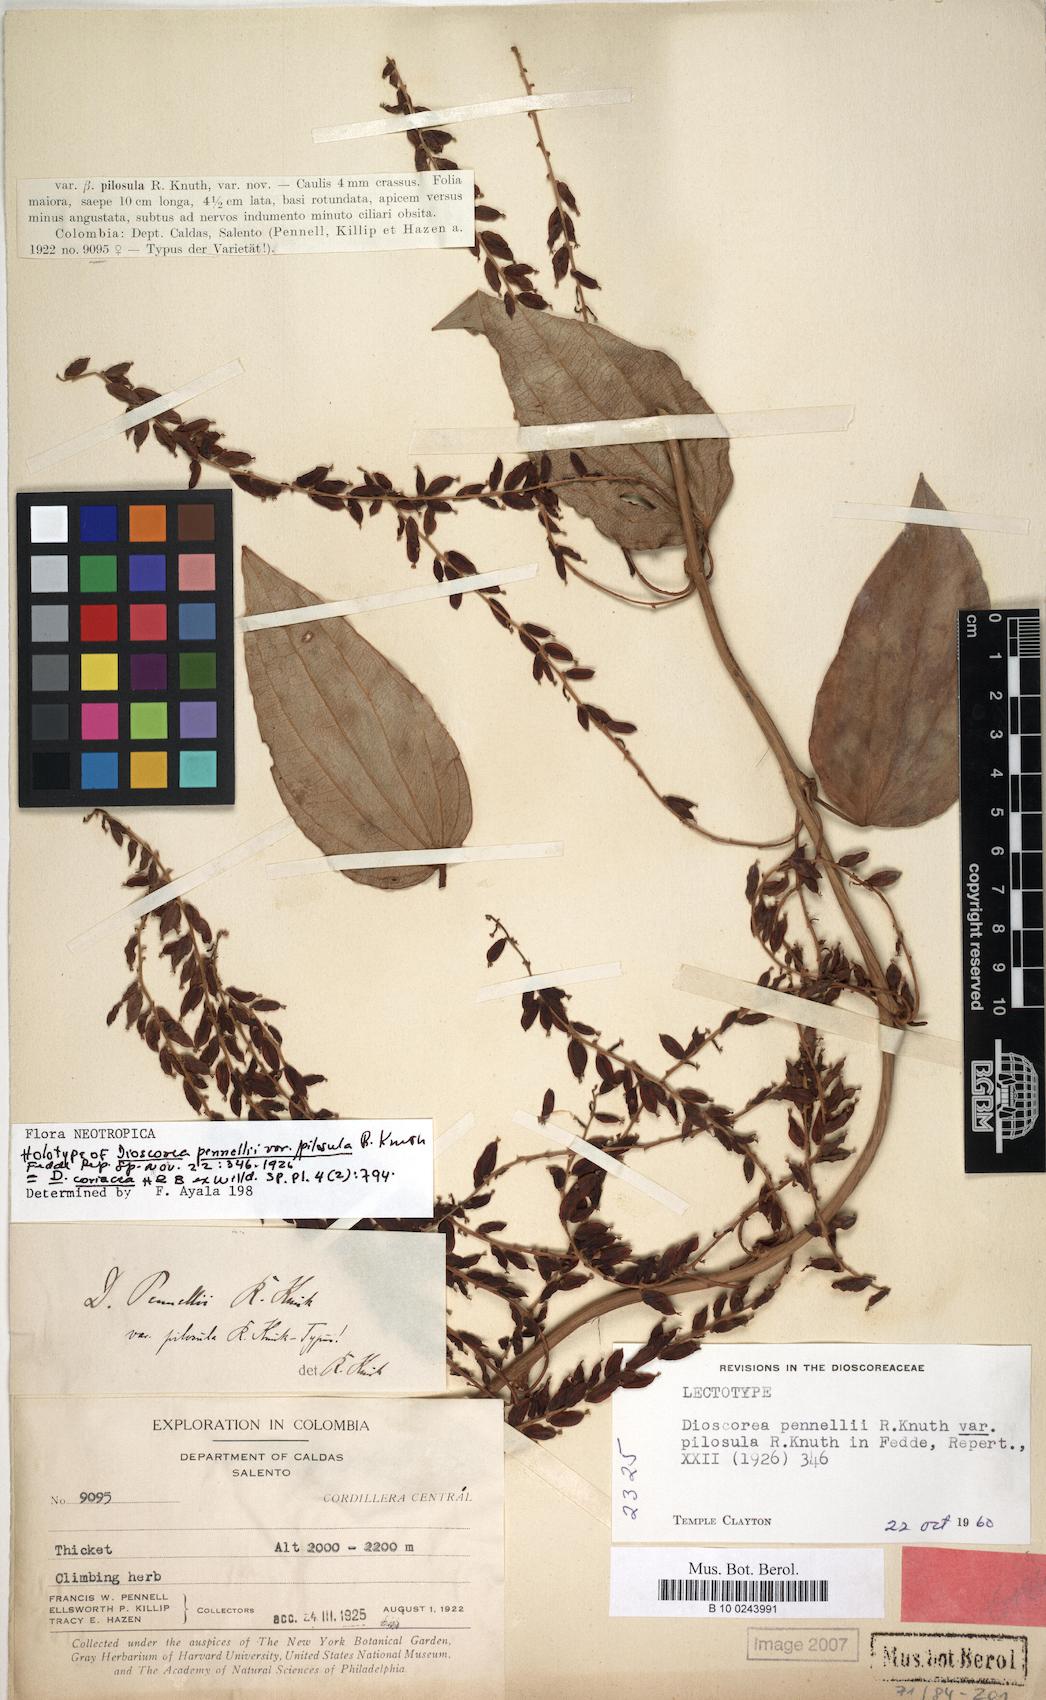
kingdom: Plantae
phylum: Tracheophyta
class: Liliopsida
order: Dioscoreales
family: Dioscoreaceae
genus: Dioscorea
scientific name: Dioscorea coriacea
